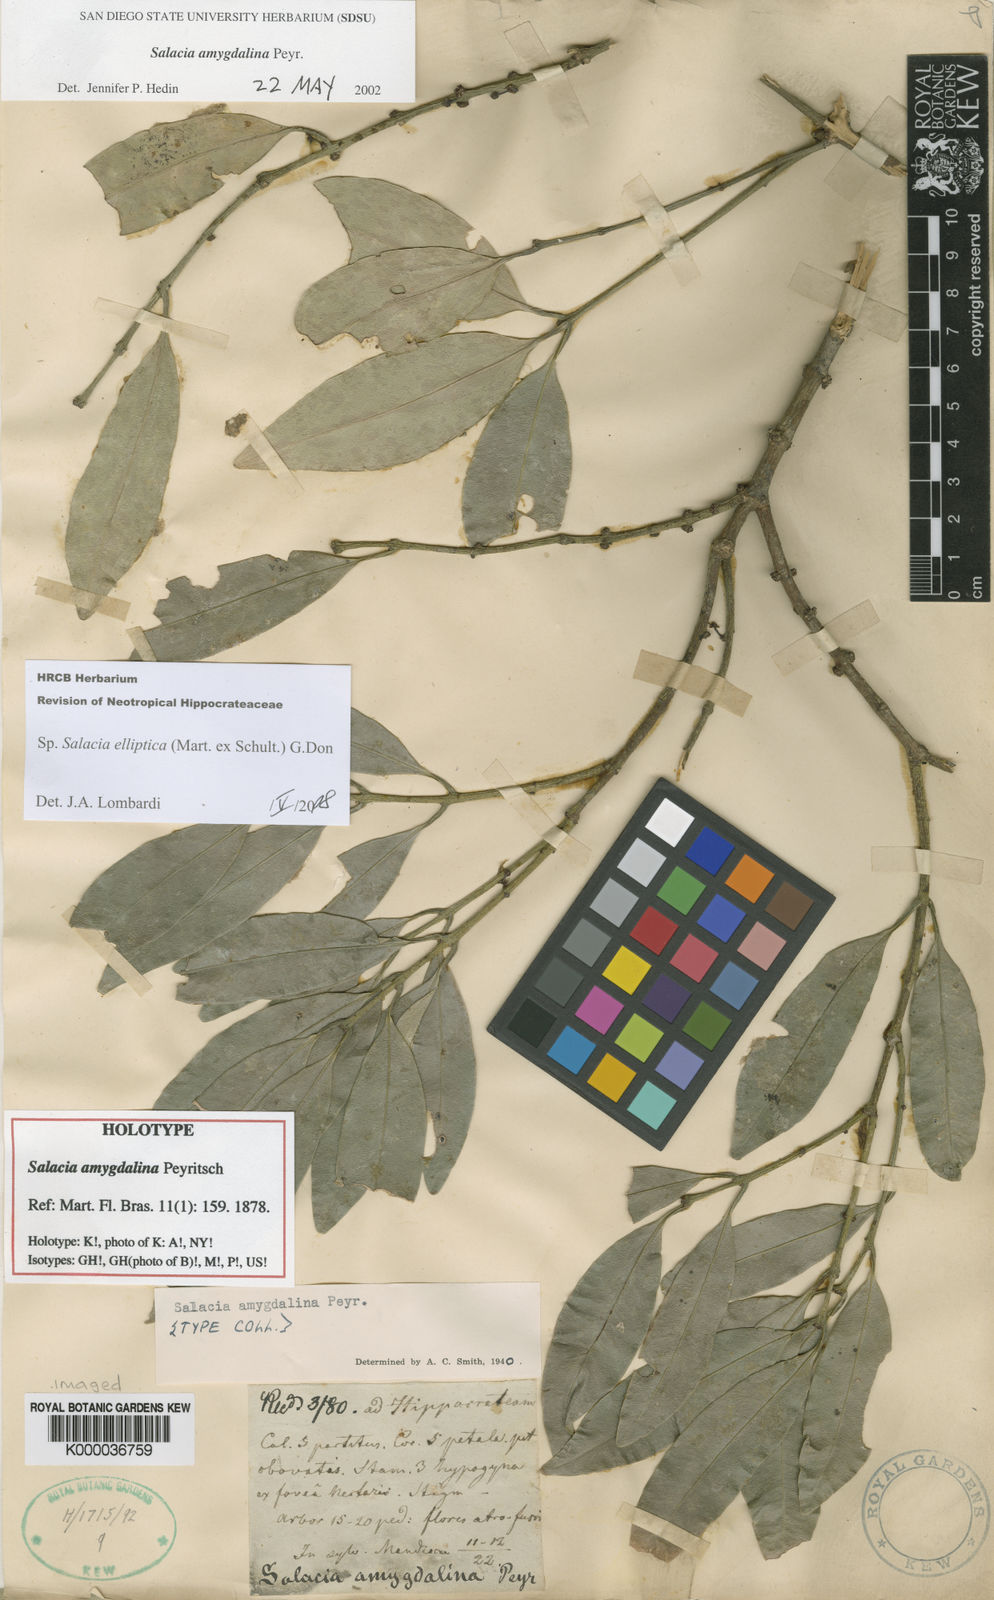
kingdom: Plantae
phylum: Tracheophyta
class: Magnoliopsida
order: Celastrales
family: Celastraceae
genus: Salacia
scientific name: Salacia elliptica
